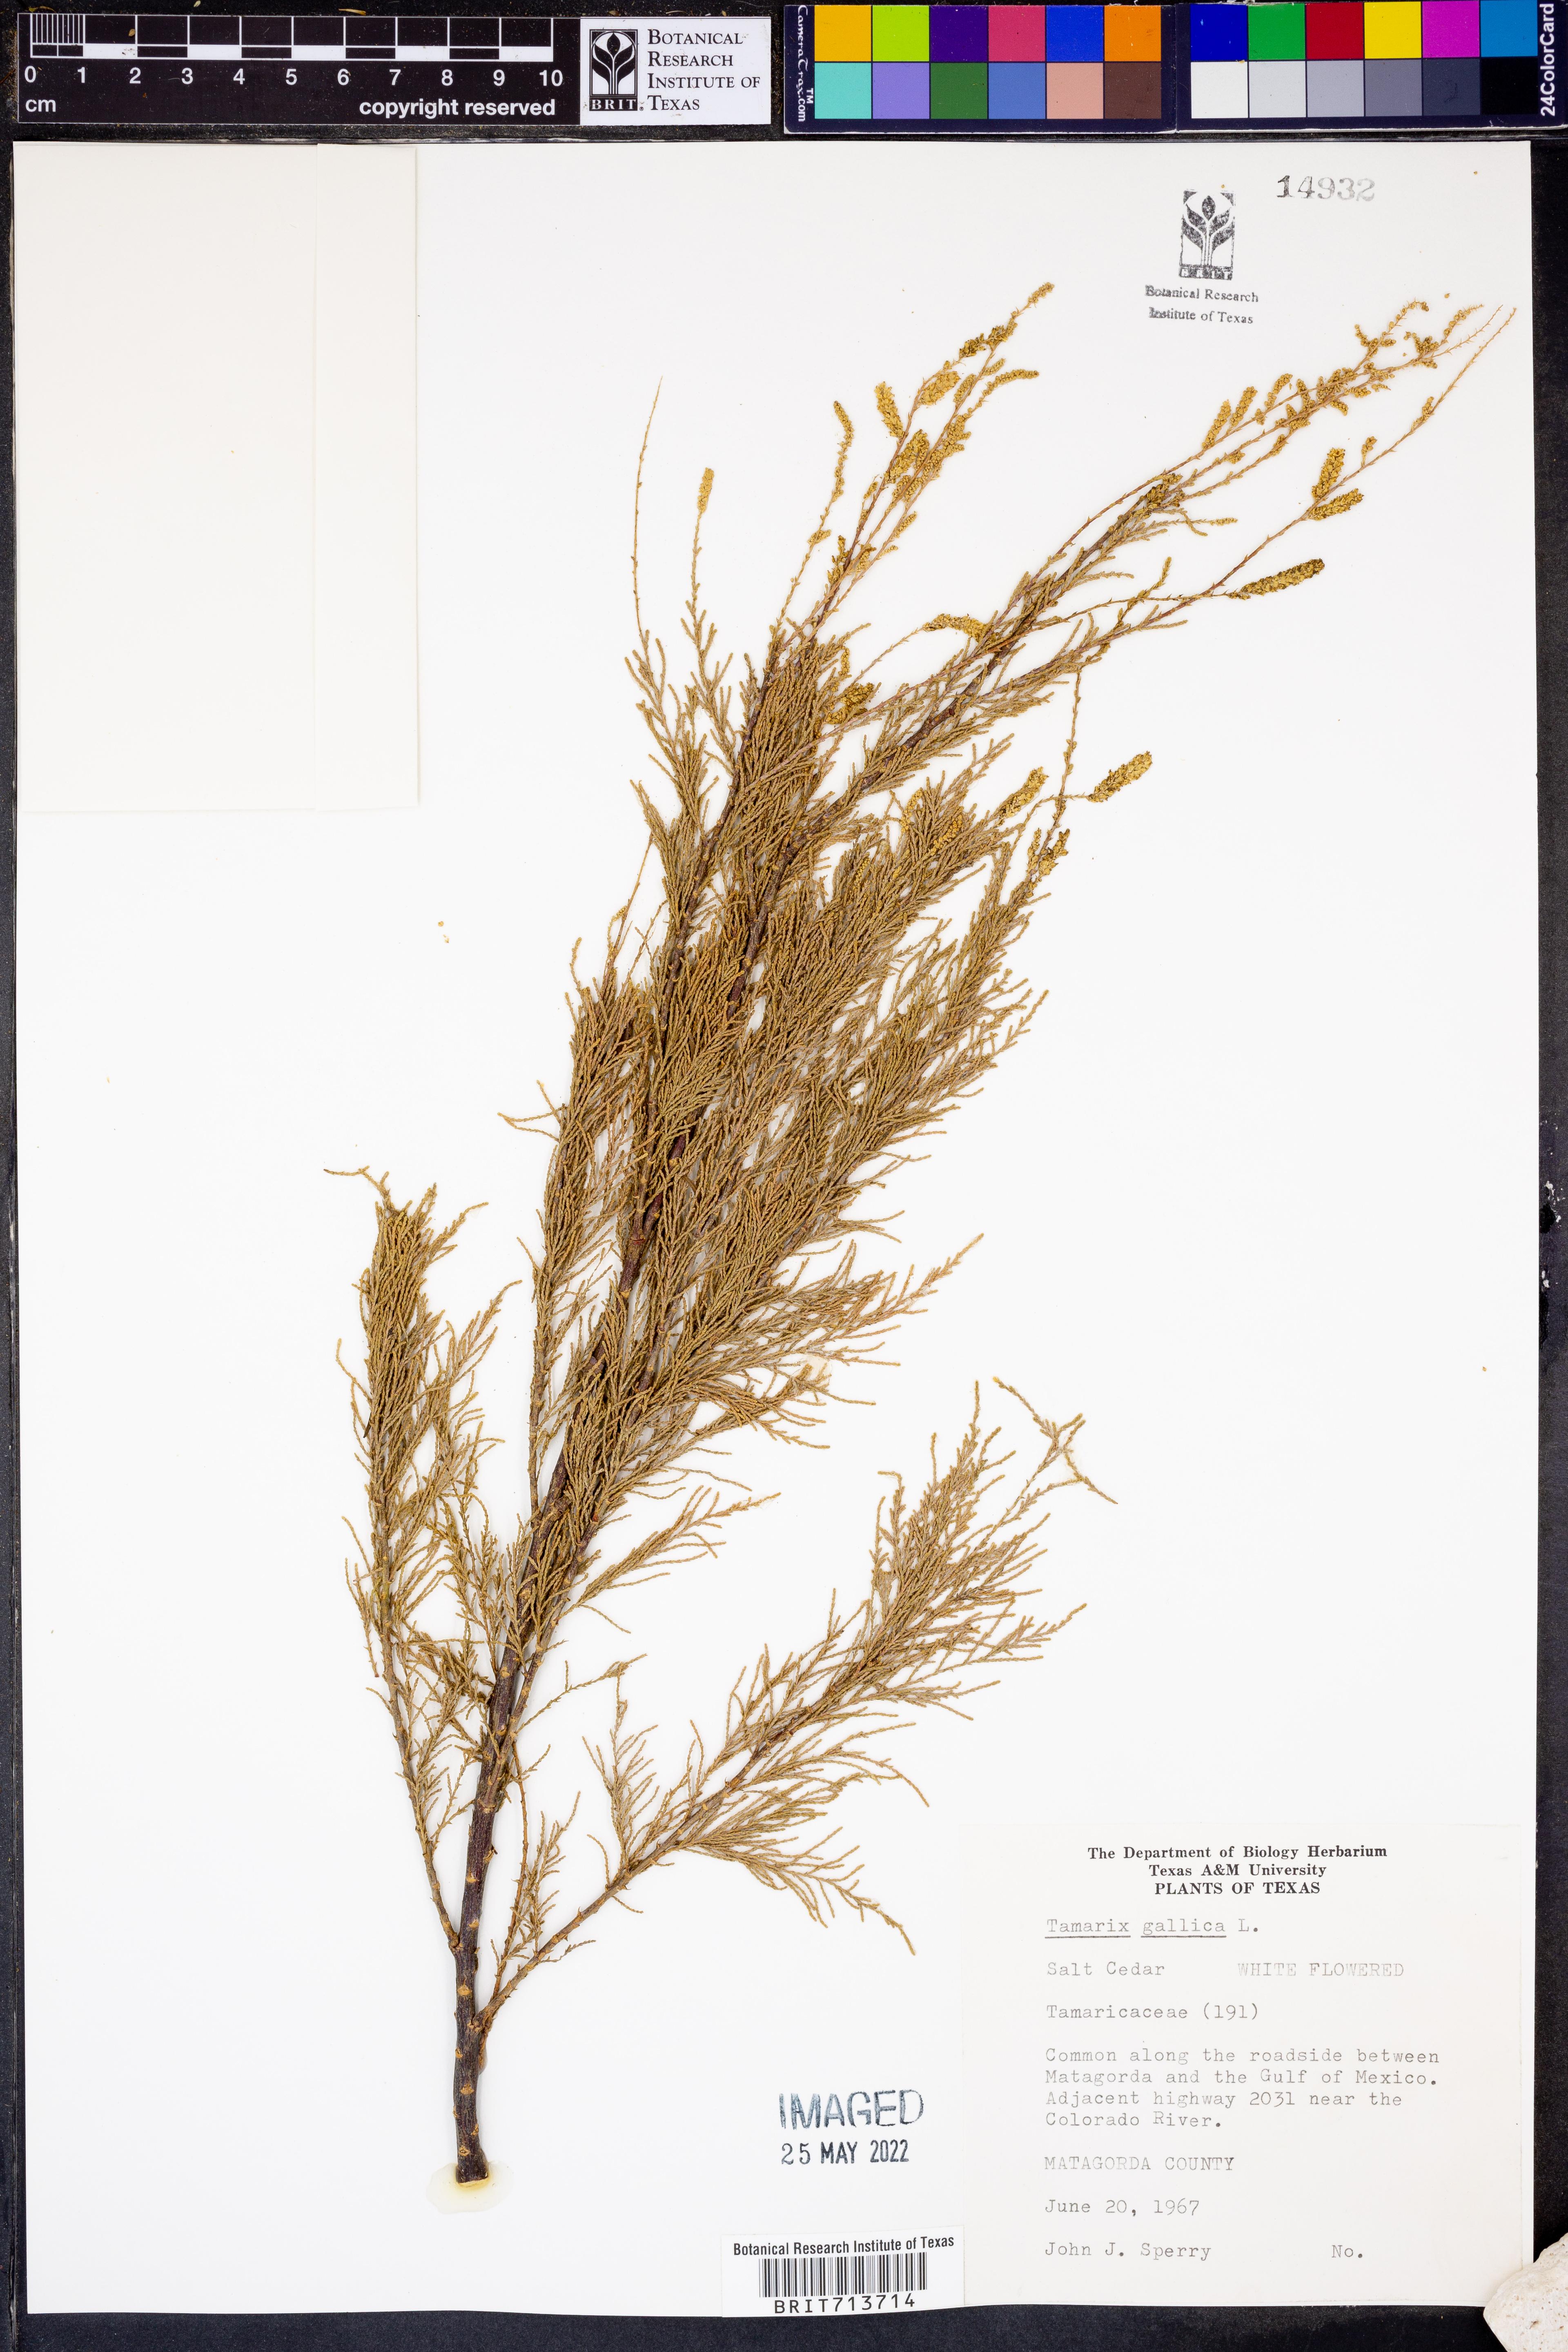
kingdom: Plantae
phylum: Tracheophyta
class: Magnoliopsida
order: Caryophyllales
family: Tamaricaceae
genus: Tamarix
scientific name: Tamarix gallica
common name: Tamarisk
